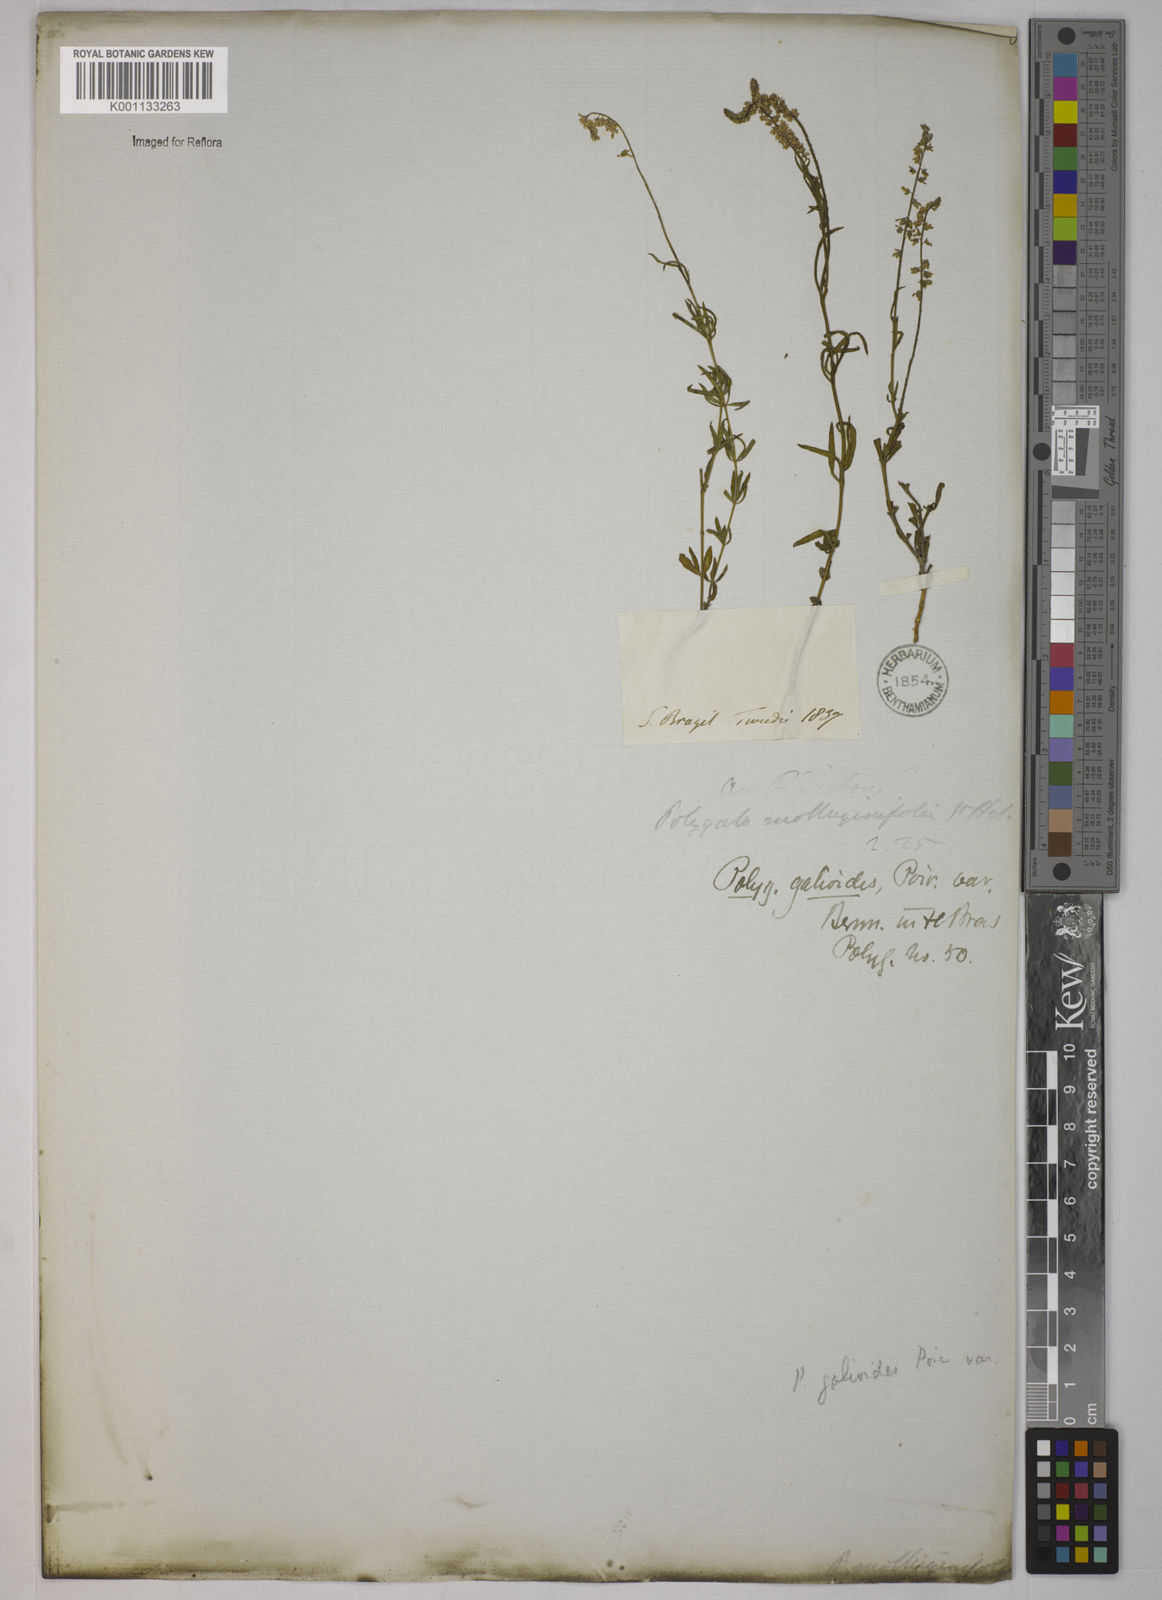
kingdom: Plantae
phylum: Tracheophyta
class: Magnoliopsida
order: Fabales
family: Polygalaceae
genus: Polygala
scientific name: Polygala asperuloides
